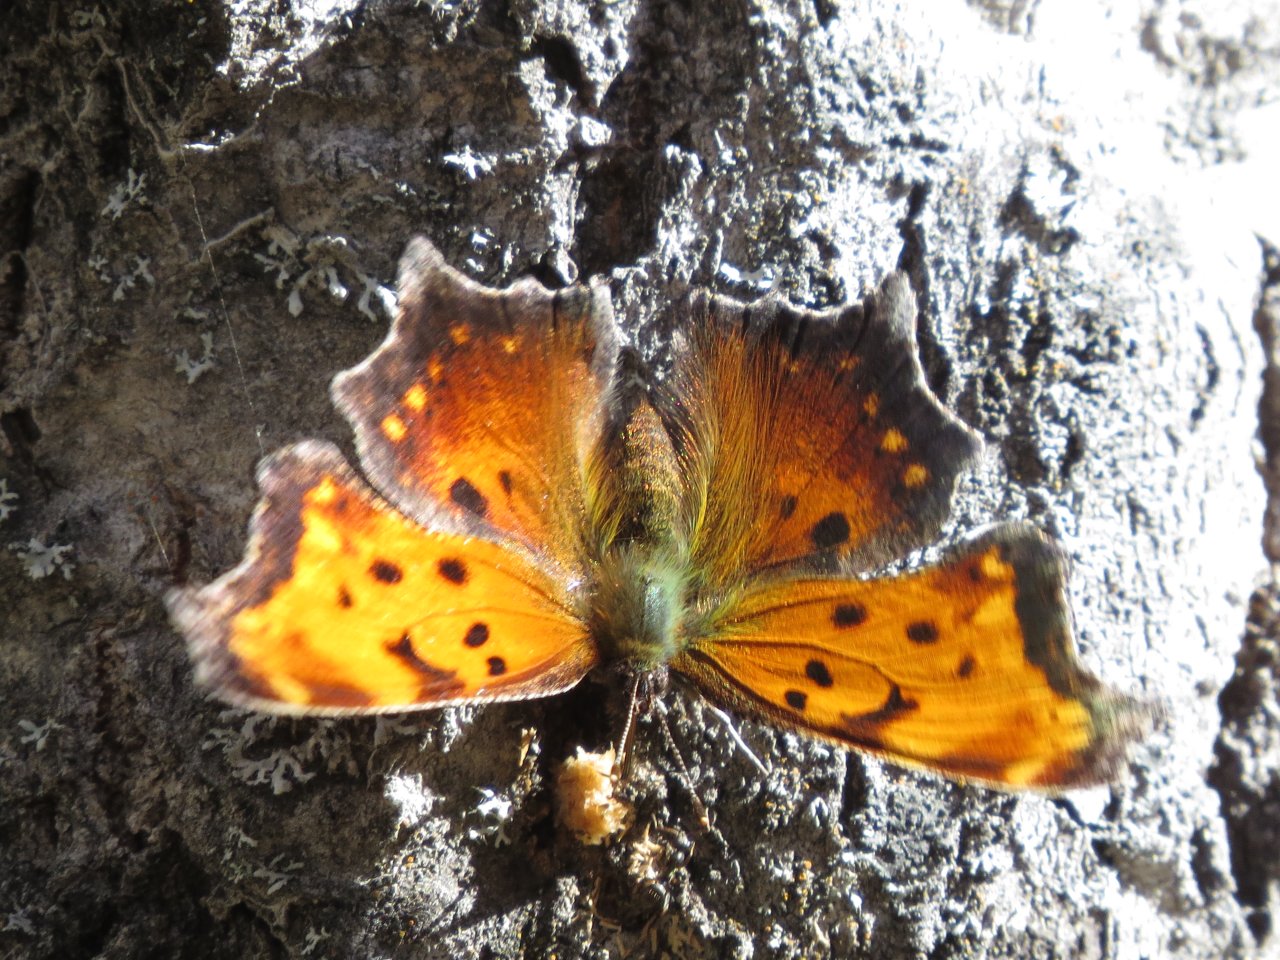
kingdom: Animalia
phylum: Arthropoda
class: Insecta
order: Lepidoptera
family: Nymphalidae
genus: Polygonia
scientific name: Polygonia progne
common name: Gray Comma
